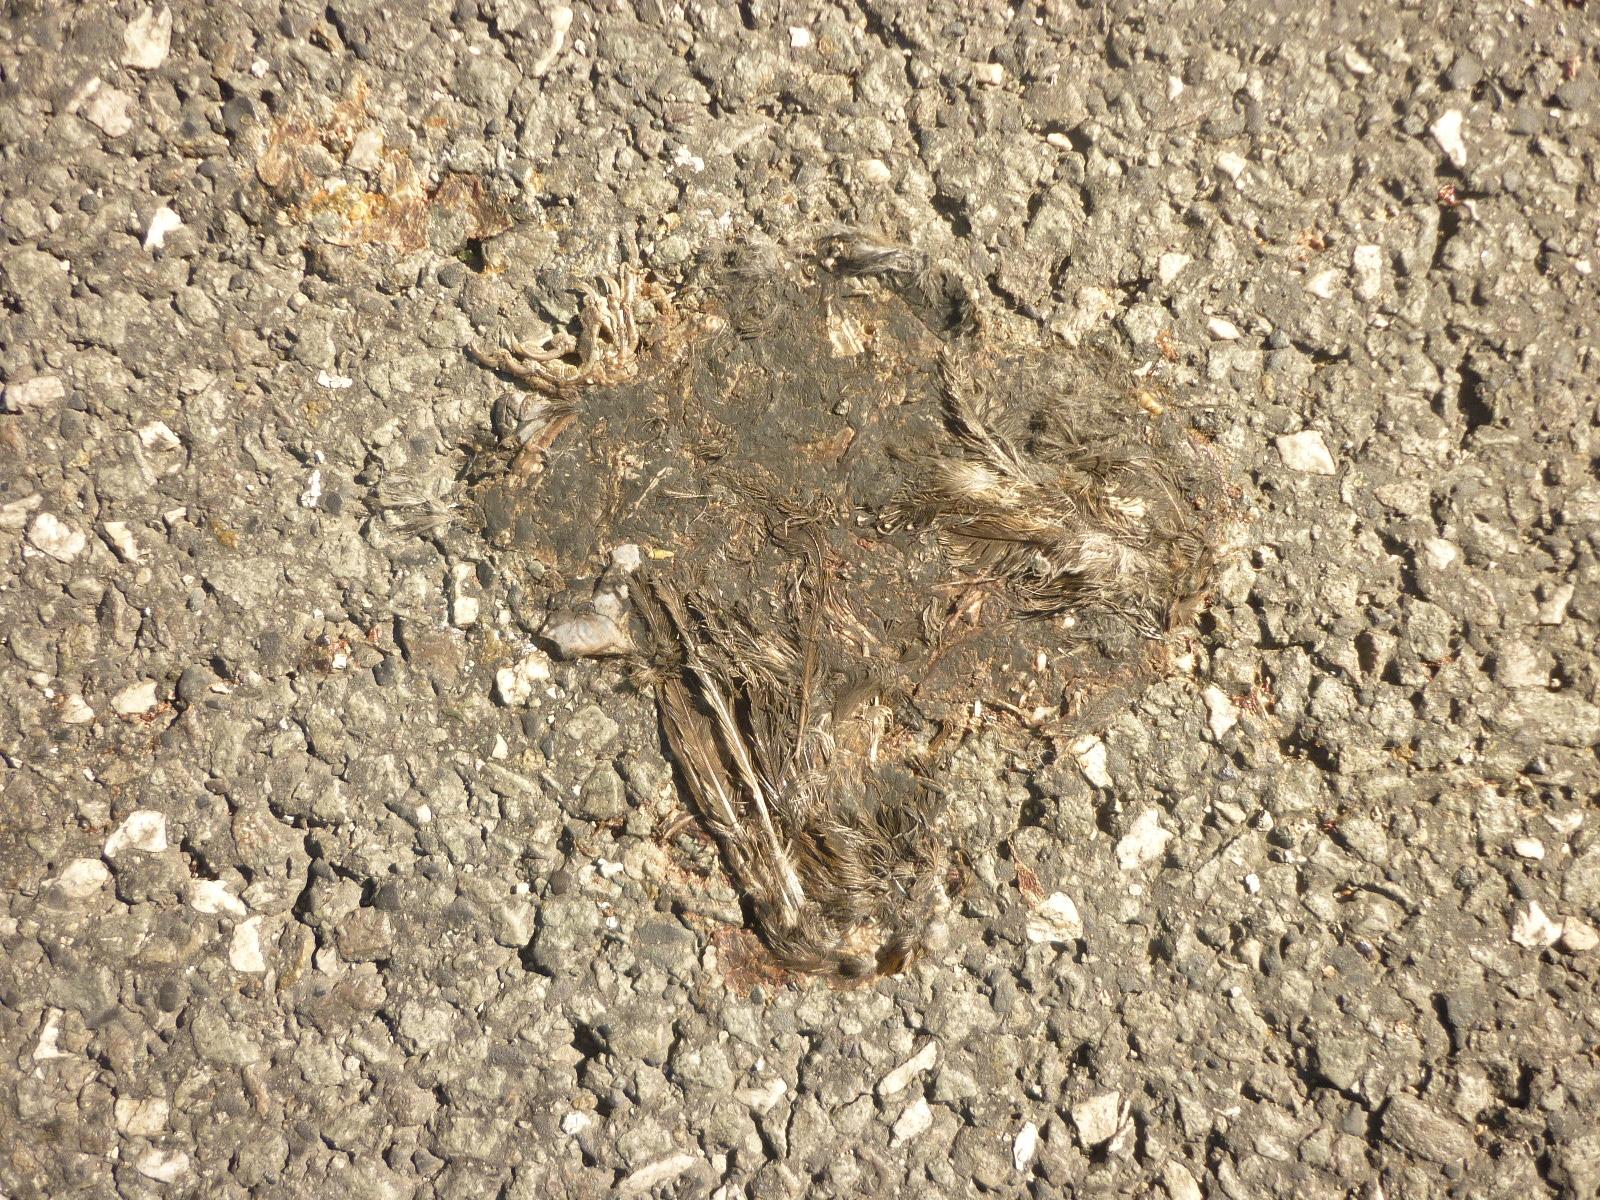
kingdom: Animalia
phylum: Chordata
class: Aves
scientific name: Aves
